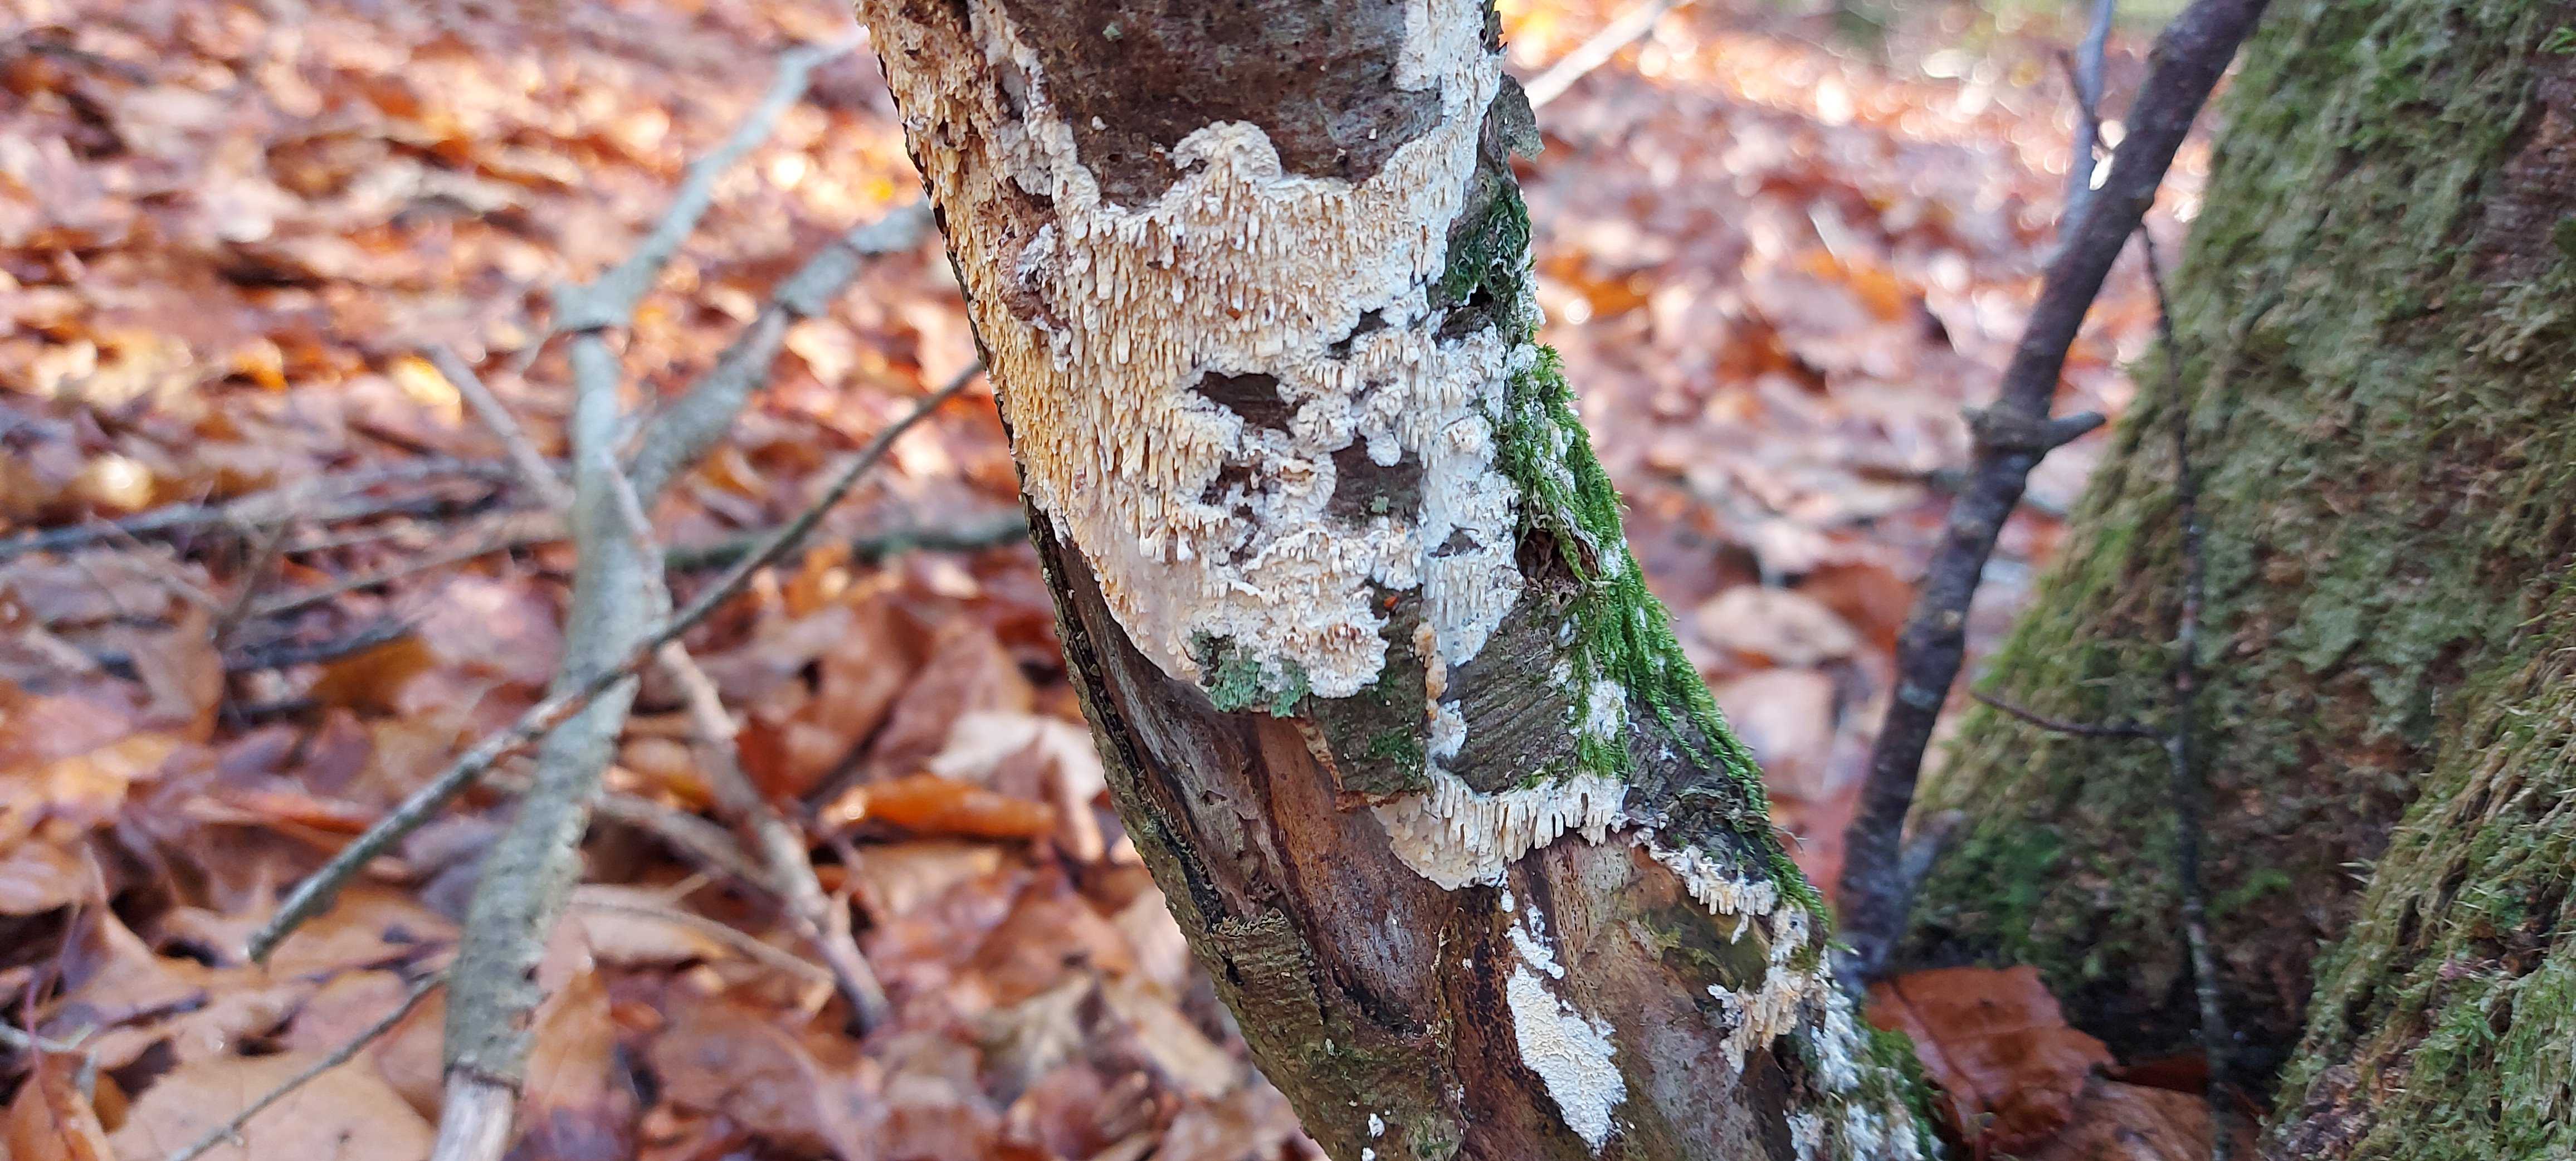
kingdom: Fungi
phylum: Basidiomycota
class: Agaricomycetes
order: Hymenochaetales
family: Schizoporaceae
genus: Xylodon
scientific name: Xylodon radula
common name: grovtandet kalkskind
